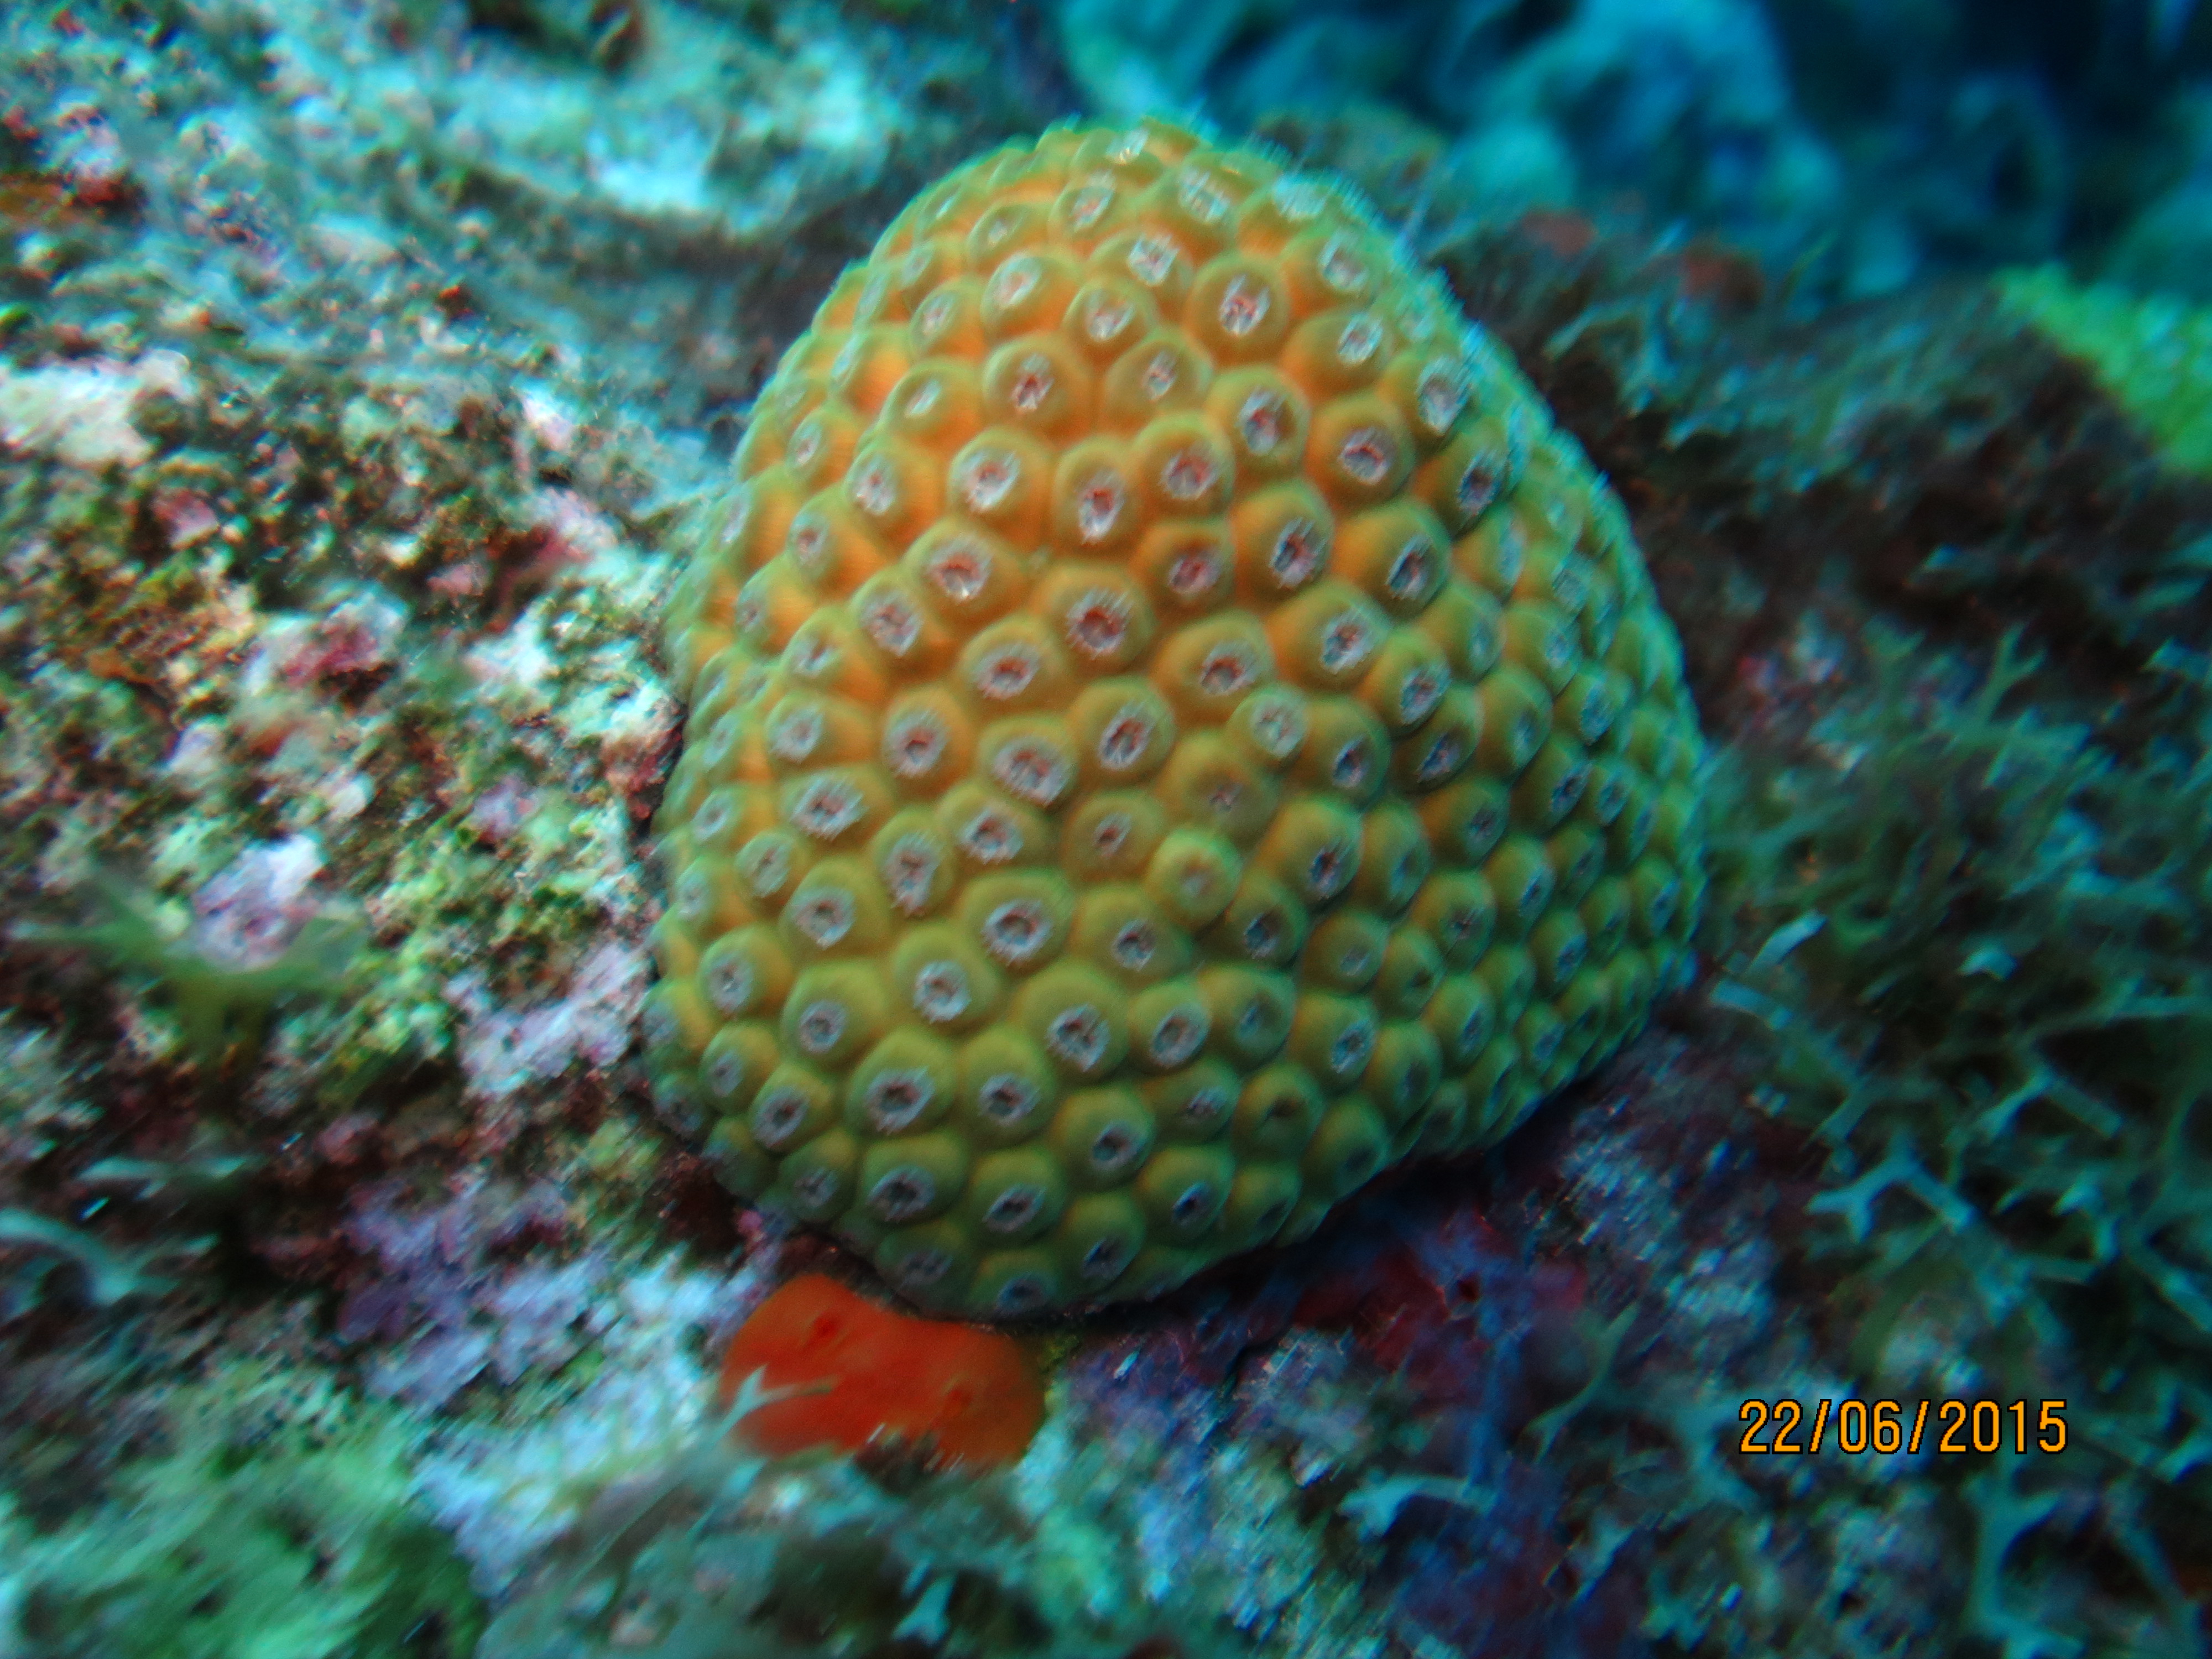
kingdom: Animalia
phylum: Cnidaria
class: Anthozoa
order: Scleractinia
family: Montastraeidae
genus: Montastraea
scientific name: Montastraea cavernosa
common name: Great star coral
